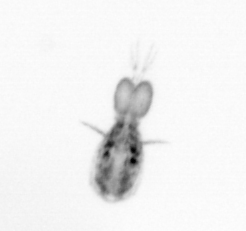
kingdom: Animalia
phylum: Arthropoda
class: Copepoda
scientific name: Copepoda
